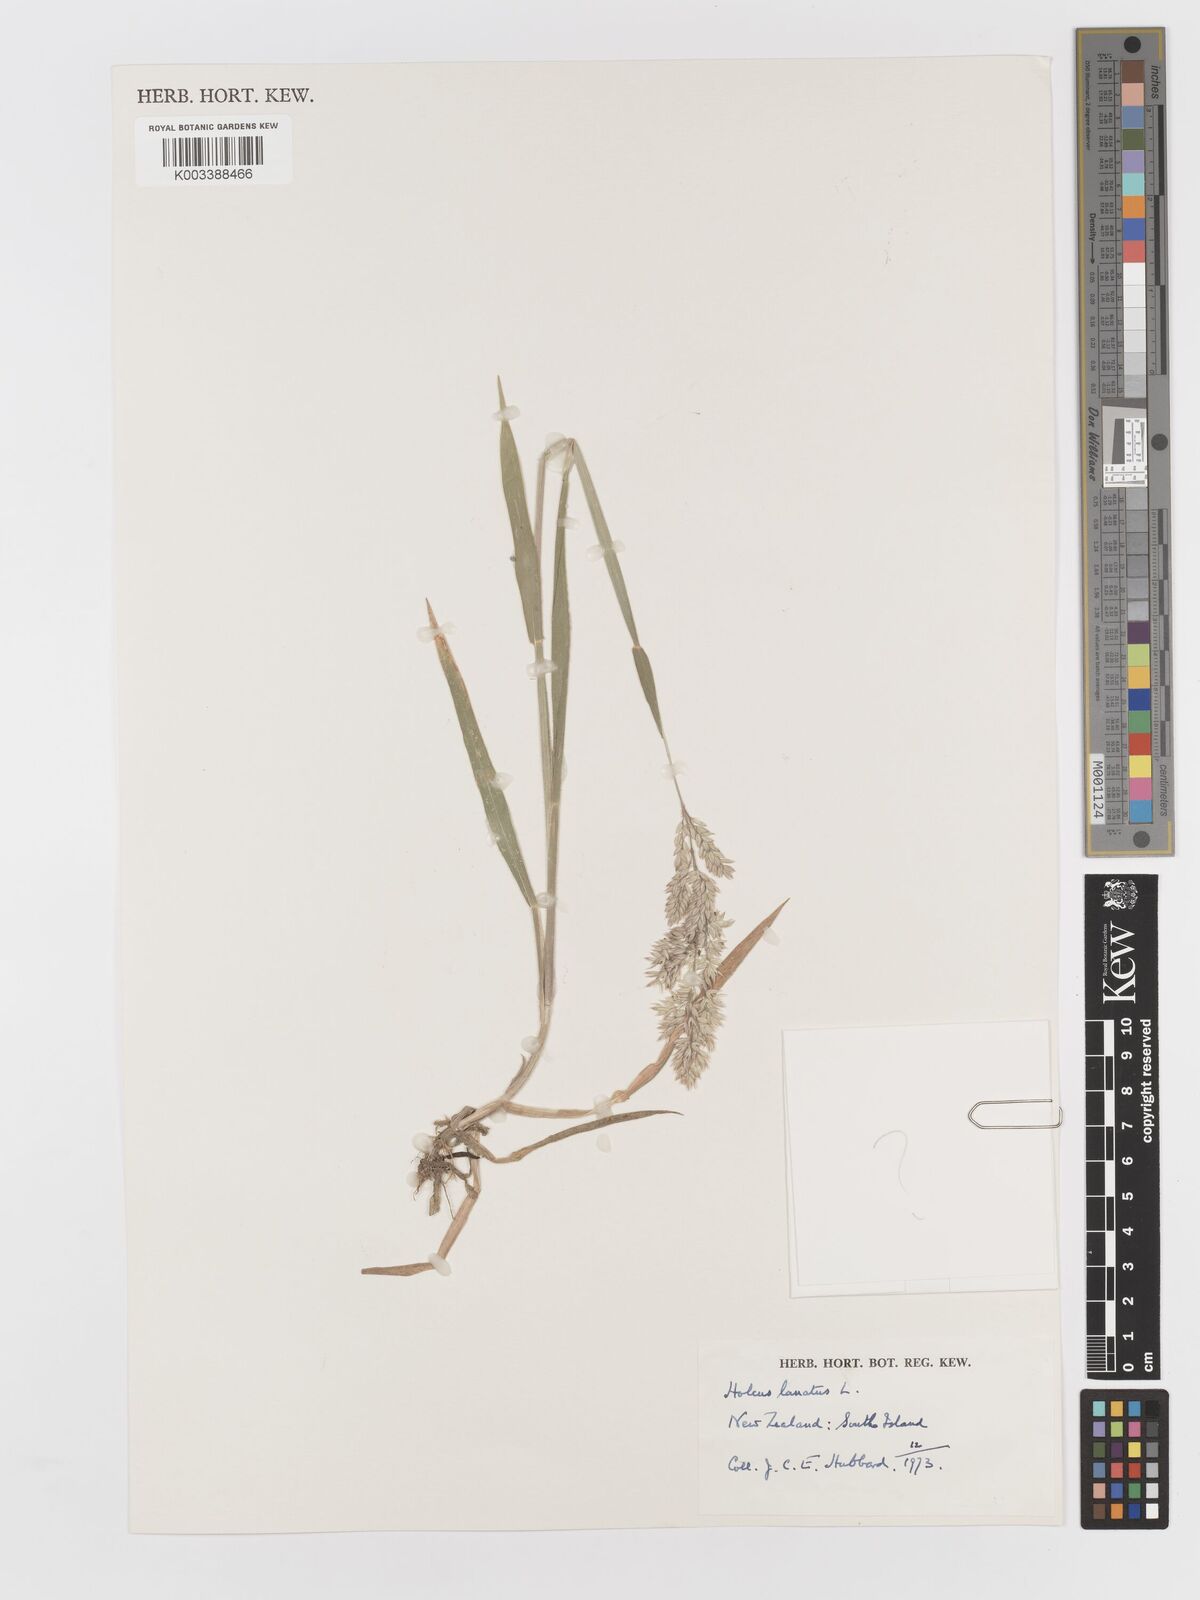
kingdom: Plantae
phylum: Tracheophyta
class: Liliopsida
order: Poales
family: Poaceae
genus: Holcus
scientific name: Holcus lanatus
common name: Yorkshire-fog
